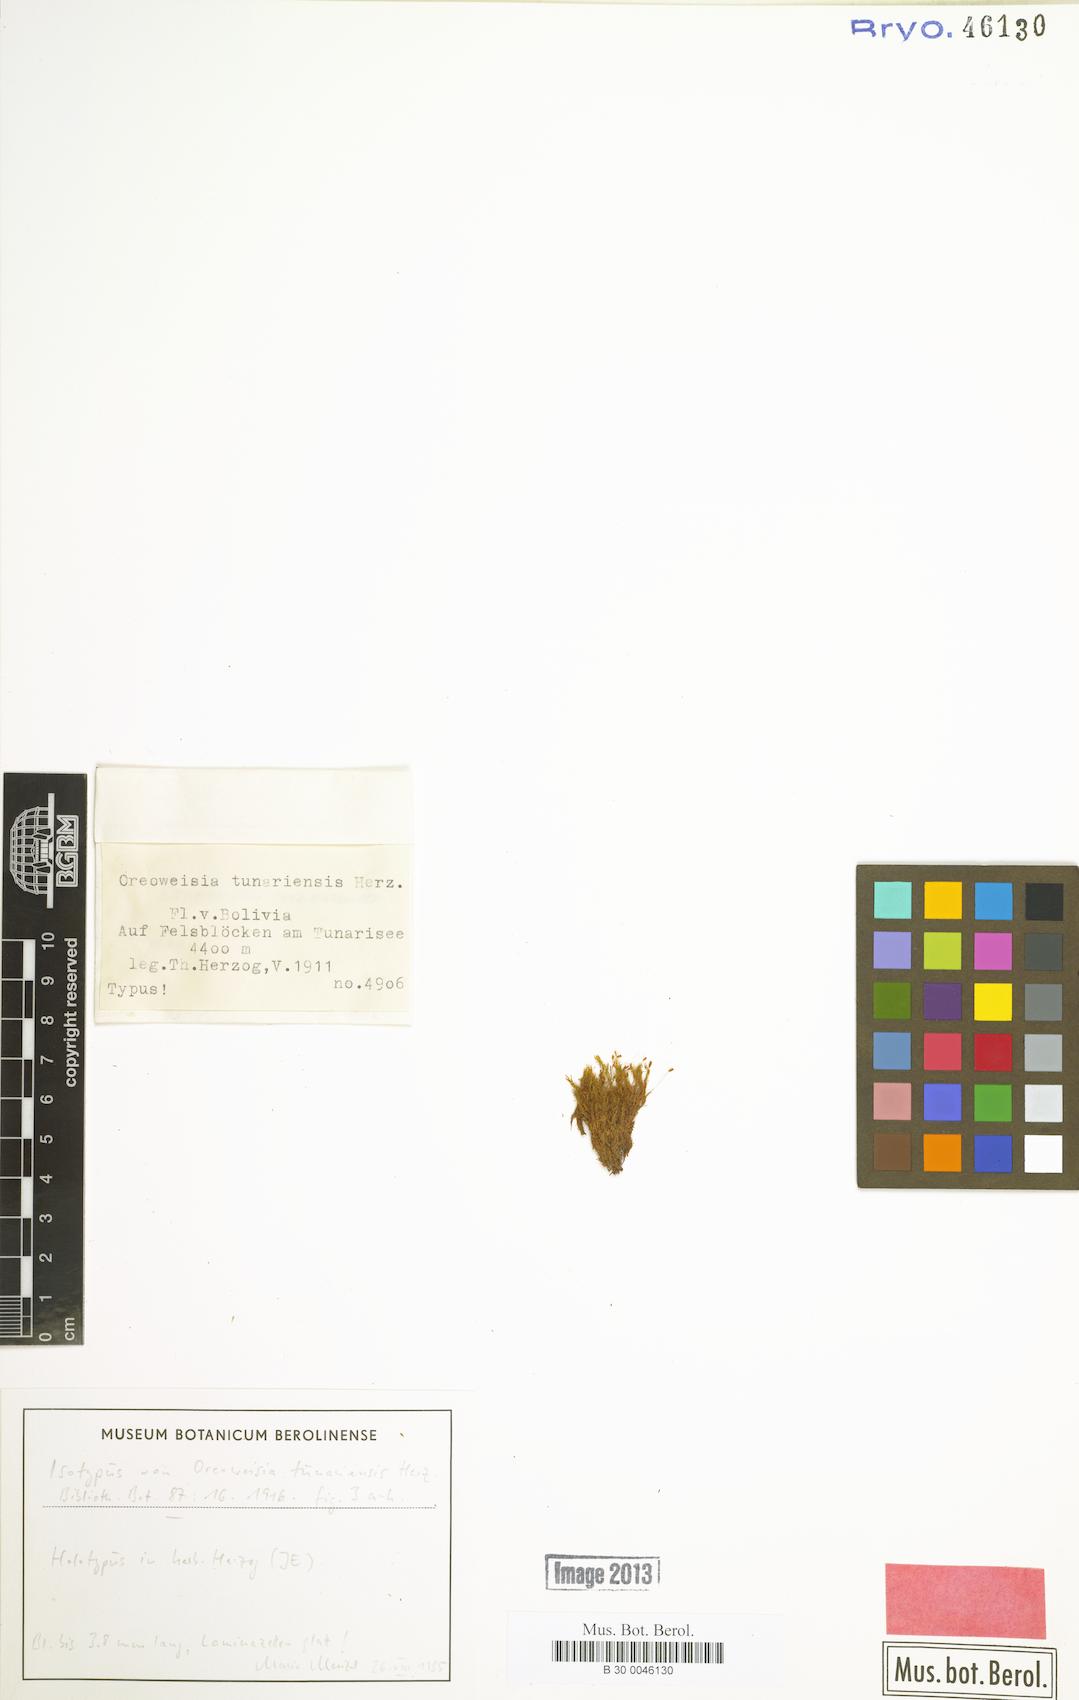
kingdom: Plantae
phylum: Bryophyta
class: Bryopsida
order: Dicranales
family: Rhabdoweisiaceae
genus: Cynodontium
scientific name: Cynodontium tunariense
